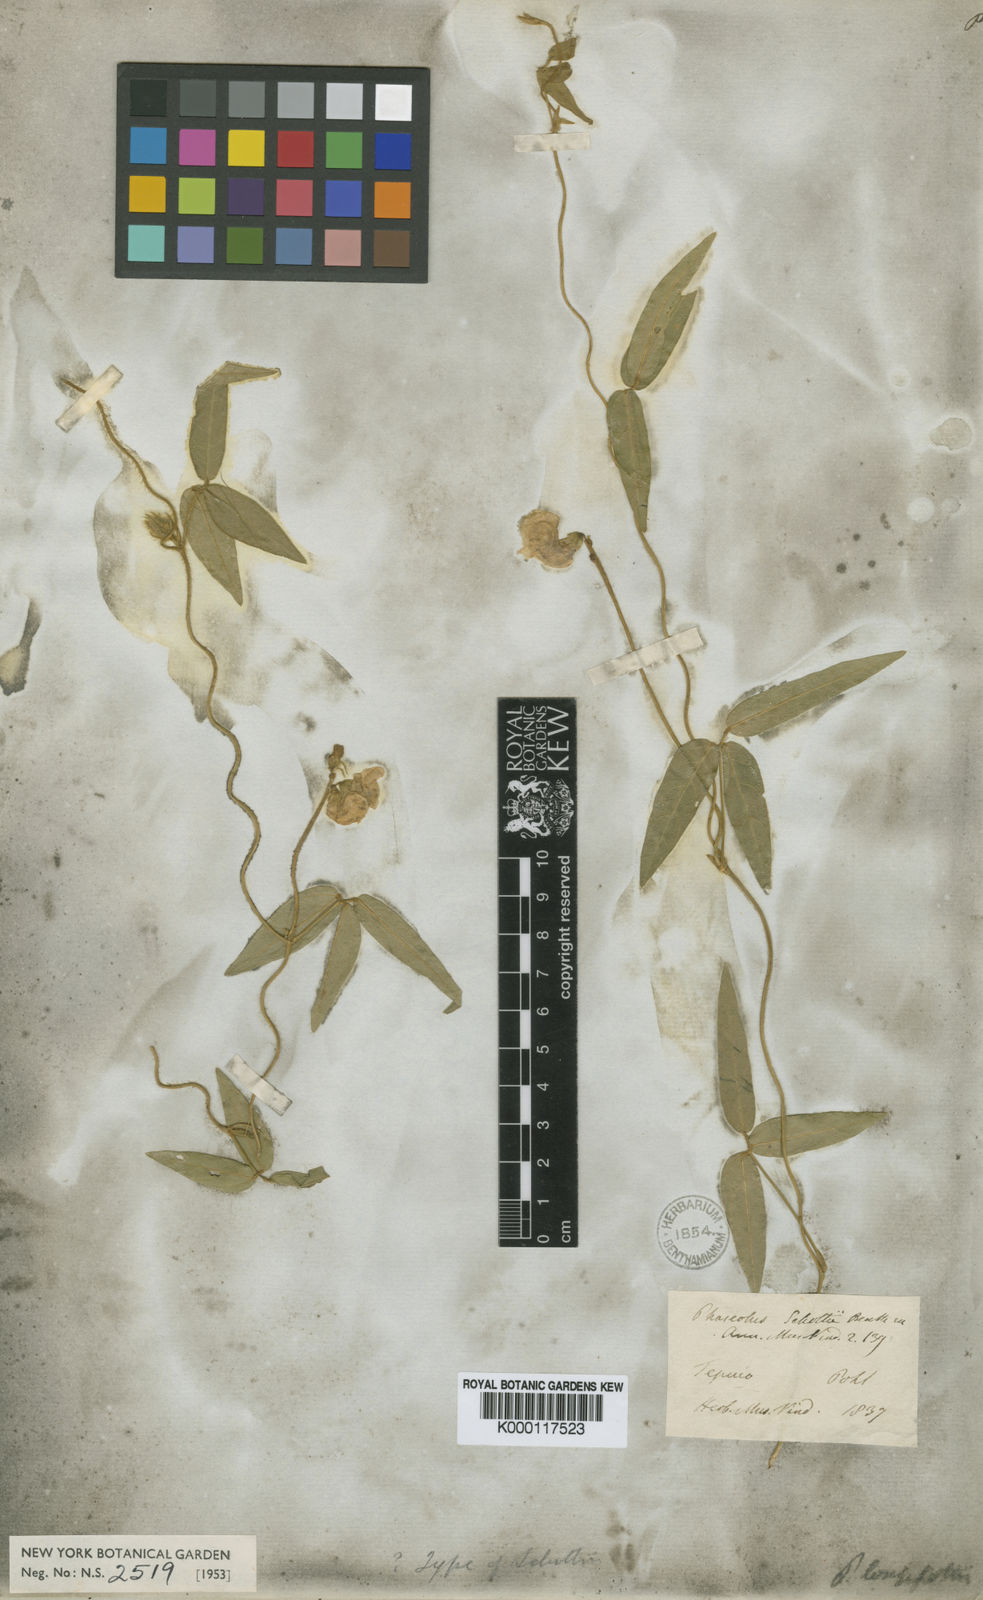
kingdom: Plantae
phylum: Tracheophyta
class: Magnoliopsida
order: Fabales
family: Fabaceae
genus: Vigna
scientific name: Vigna longifolia
